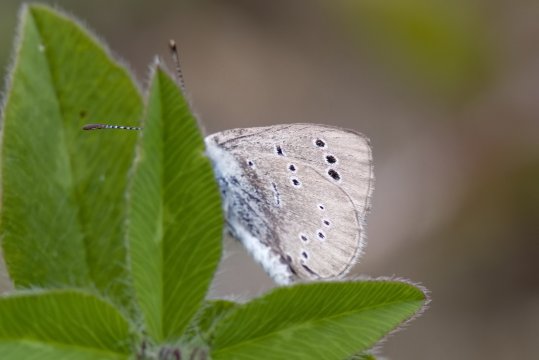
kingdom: Animalia
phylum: Arthropoda
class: Insecta
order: Lepidoptera
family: Lycaenidae
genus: Glaucopsyche
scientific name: Glaucopsyche lygdamus
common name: Silvery Blue
